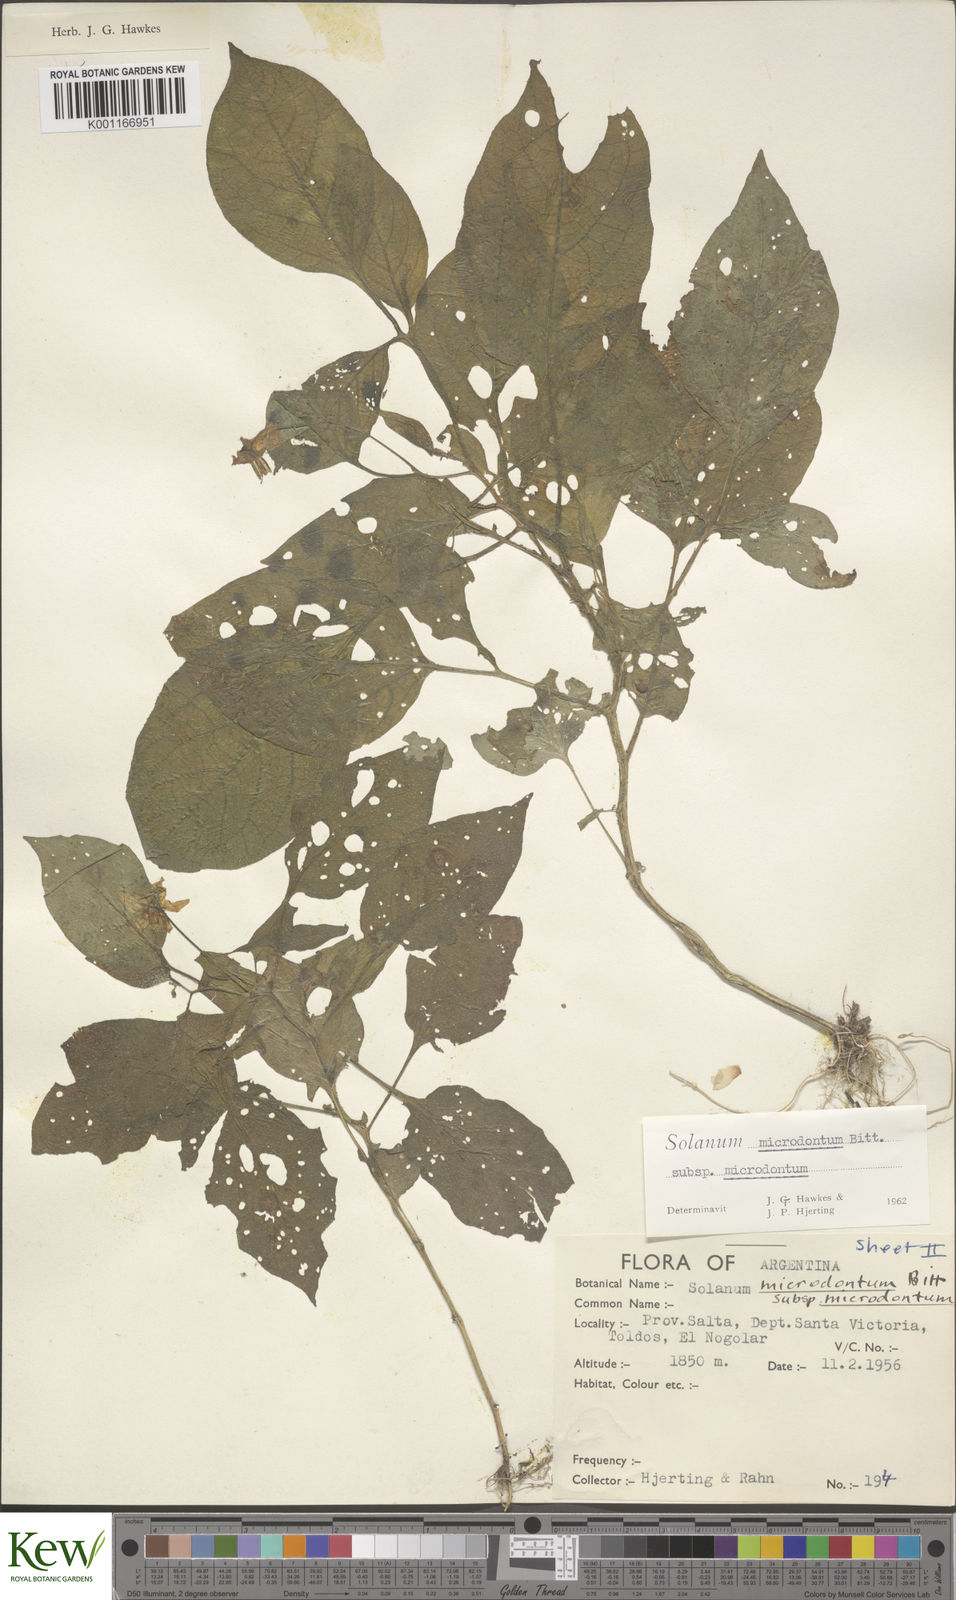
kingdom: Plantae
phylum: Tracheophyta
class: Magnoliopsida
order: Solanales
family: Solanaceae
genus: Solanum
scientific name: Solanum microdontum
